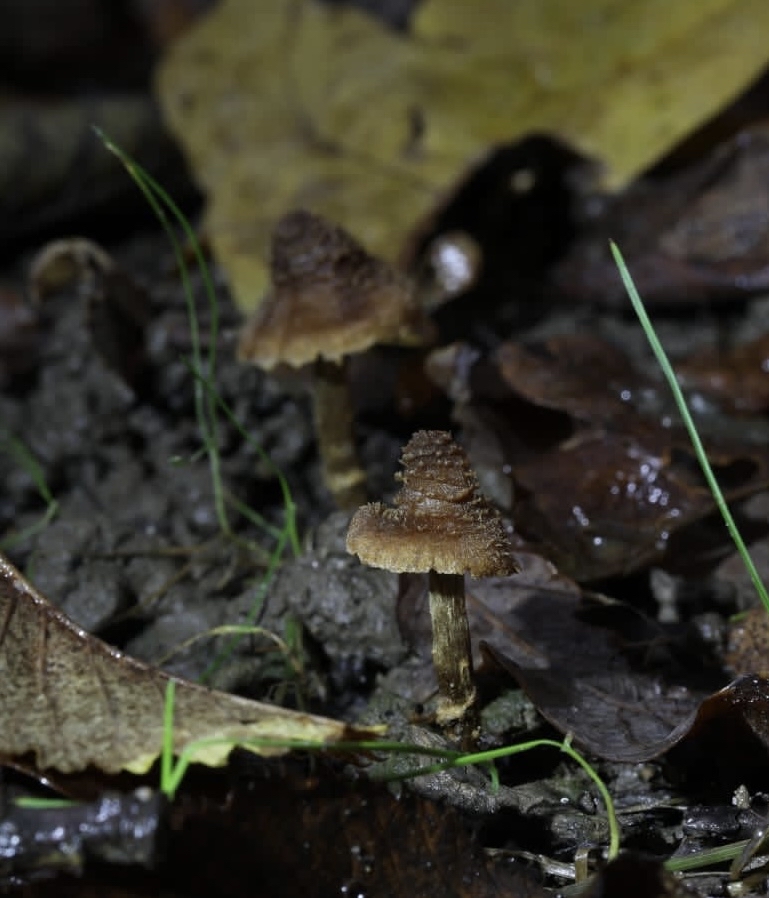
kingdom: Fungi
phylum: Basidiomycota
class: Agaricomycetes
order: Agaricales
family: Cortinariaceae
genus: Cortinarius
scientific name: Cortinarius
